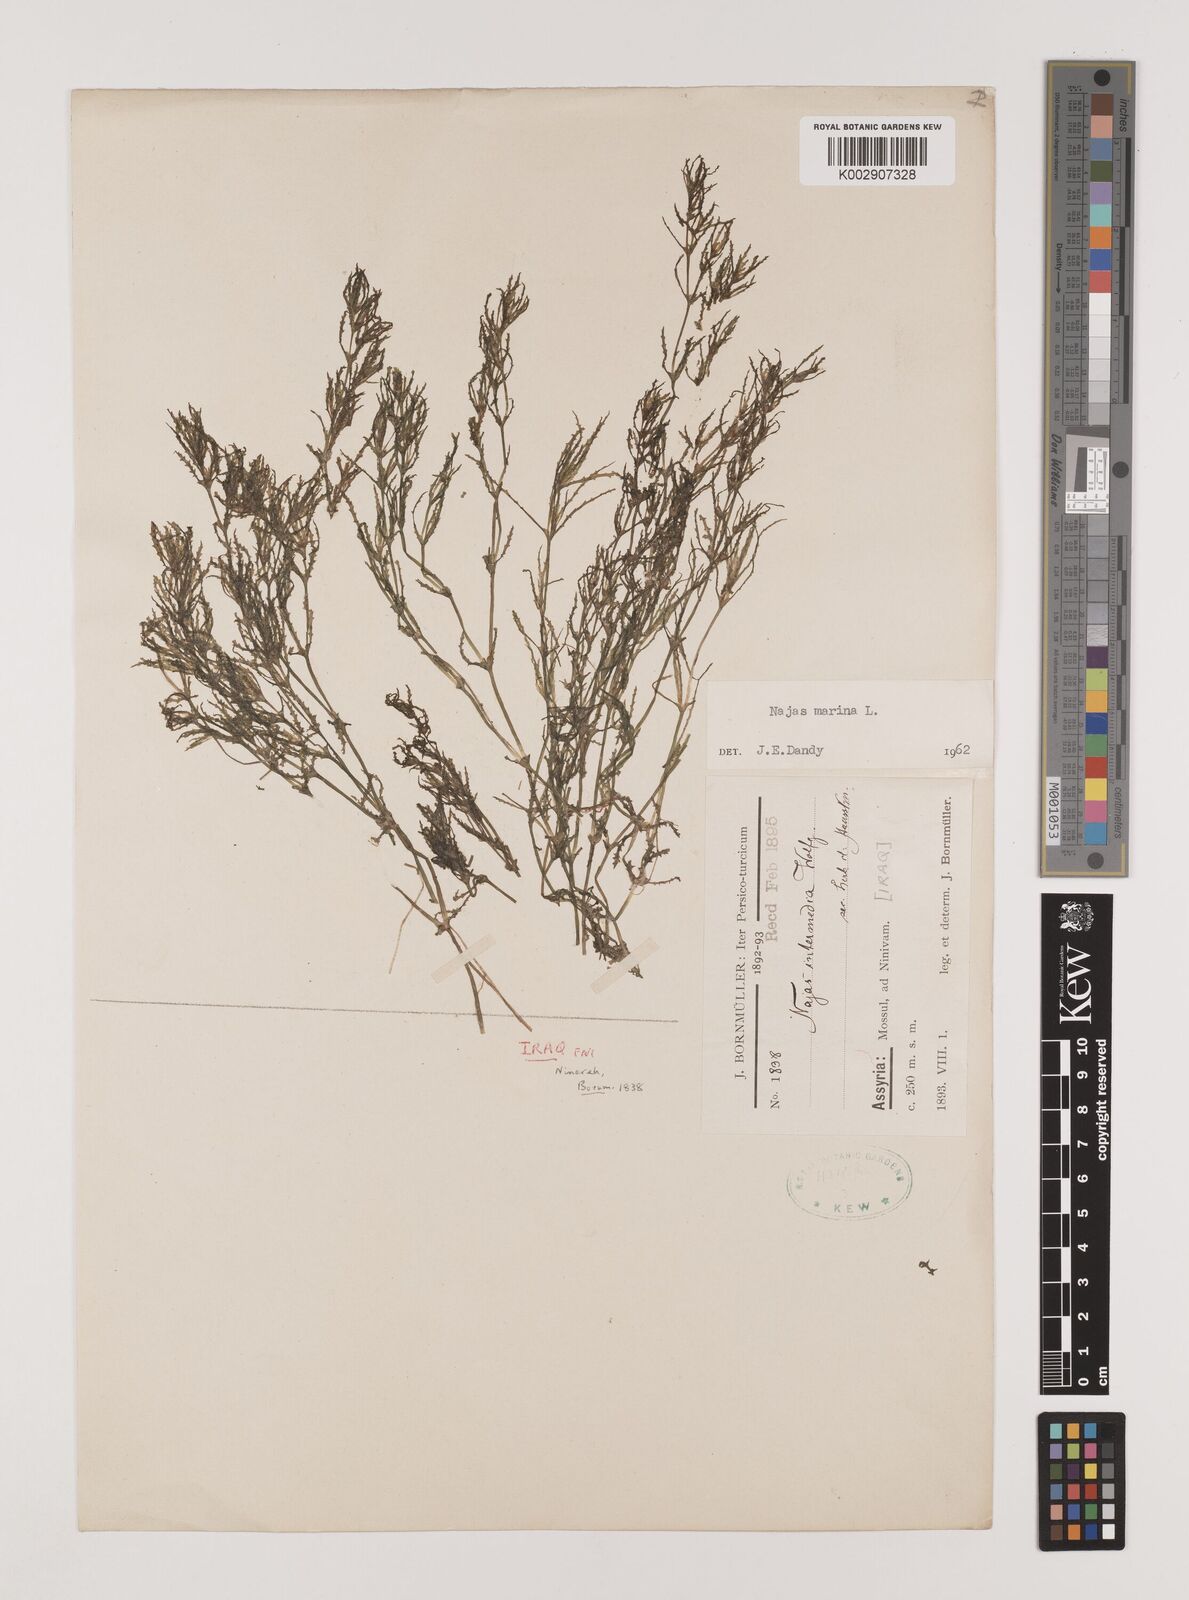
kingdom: Plantae
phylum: Tracheophyta
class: Liliopsida
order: Alismatales
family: Hydrocharitaceae
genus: Najas
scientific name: Najas marina
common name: Holly-leaved naiad
